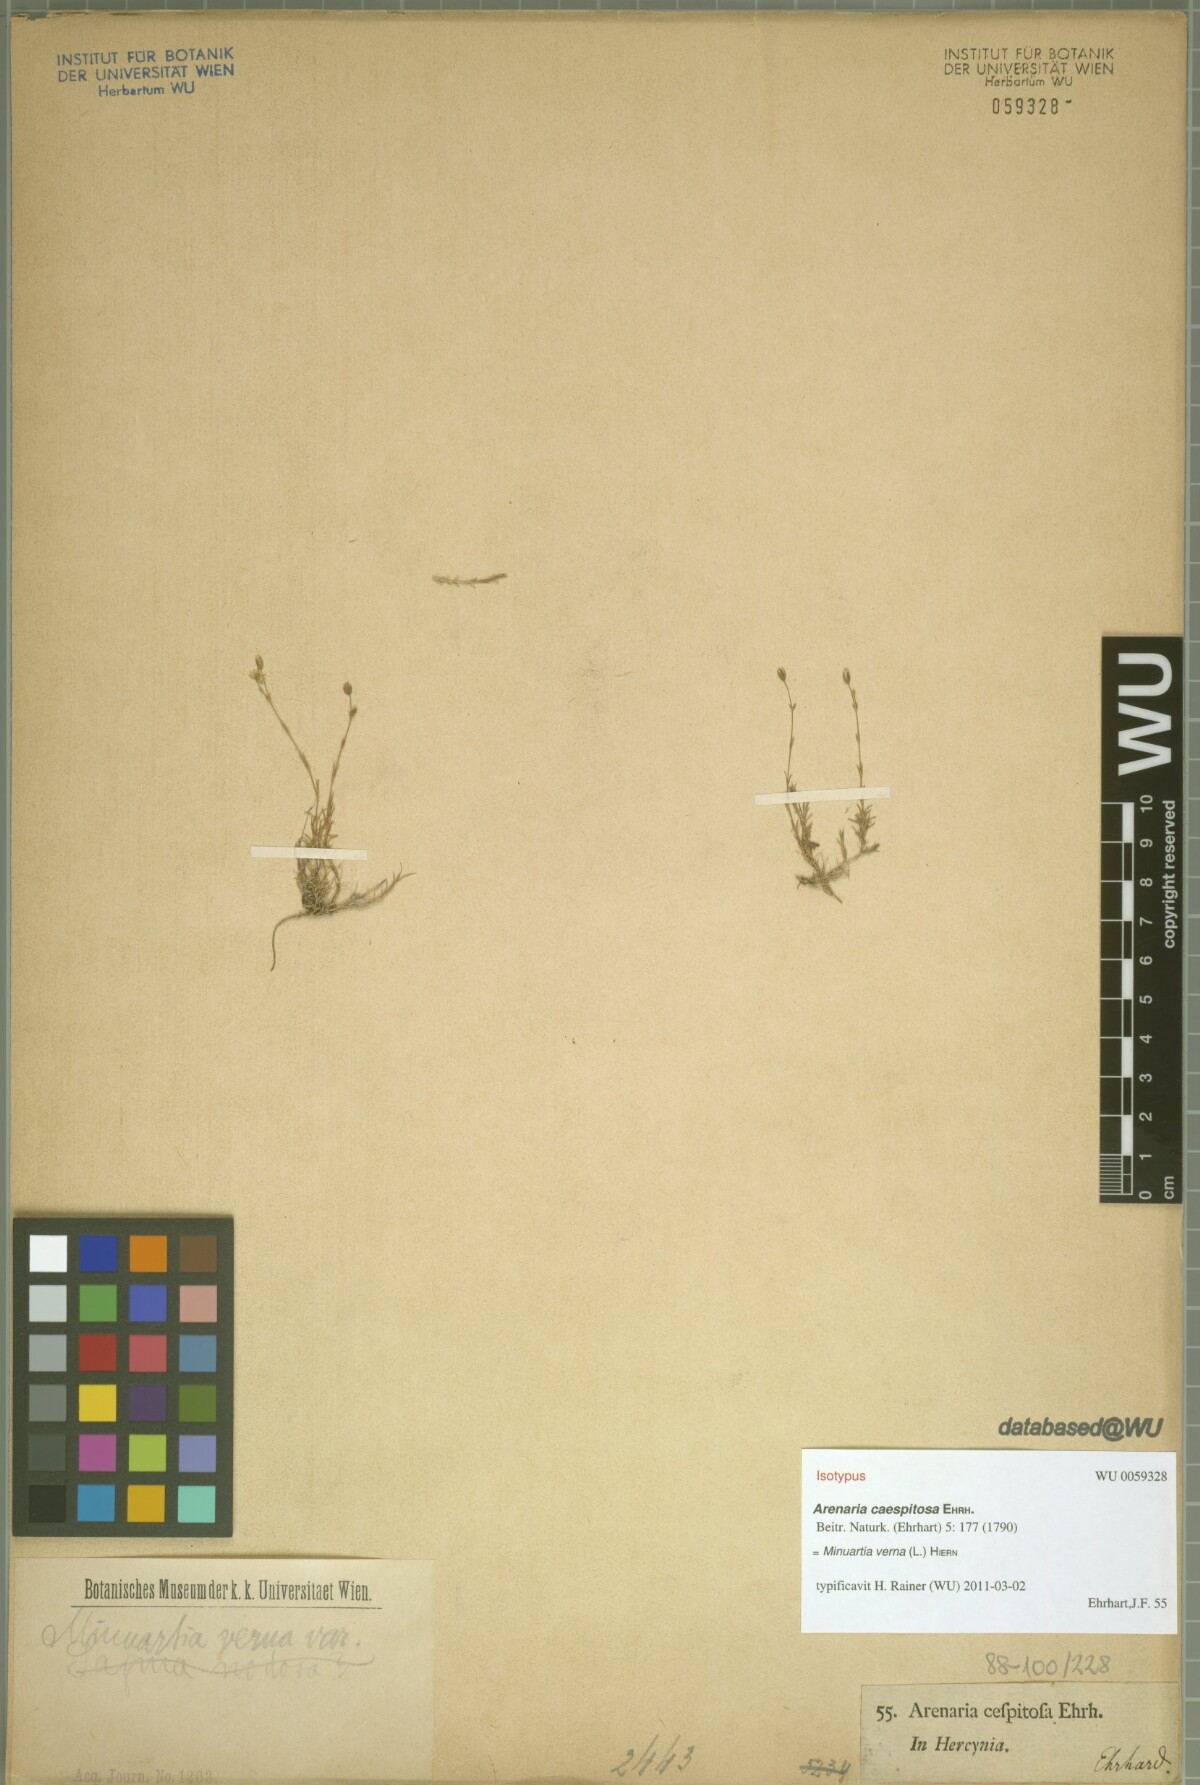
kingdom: Plantae
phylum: Tracheophyta
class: Magnoliopsida
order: Caryophyllales
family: Caryophyllaceae
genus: Sabulina
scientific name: Sabulina verna
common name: Spring sandwort
